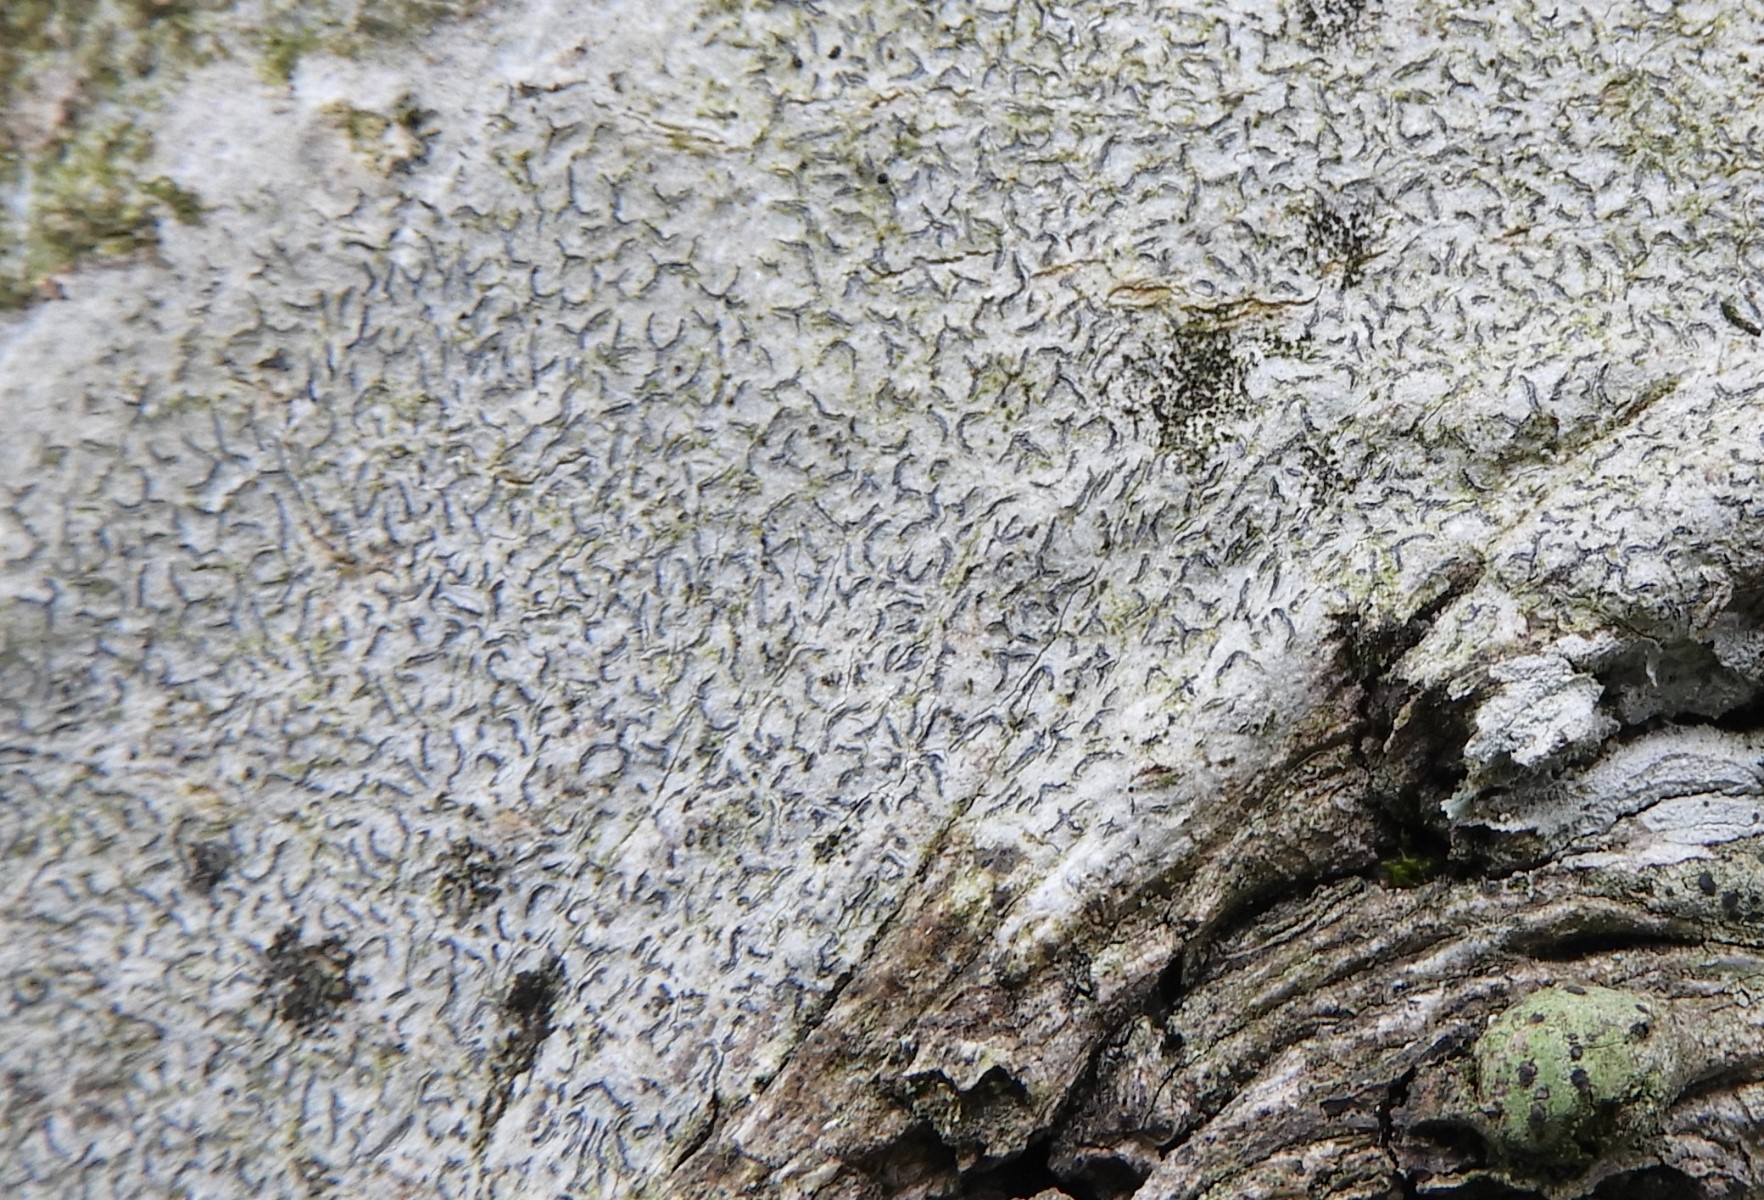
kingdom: Fungi
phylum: Ascomycota
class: Lecanoromycetes
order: Ostropales
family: Graphidaceae
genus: Graphis
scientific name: Graphis scripta
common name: almindelig skriftlav
